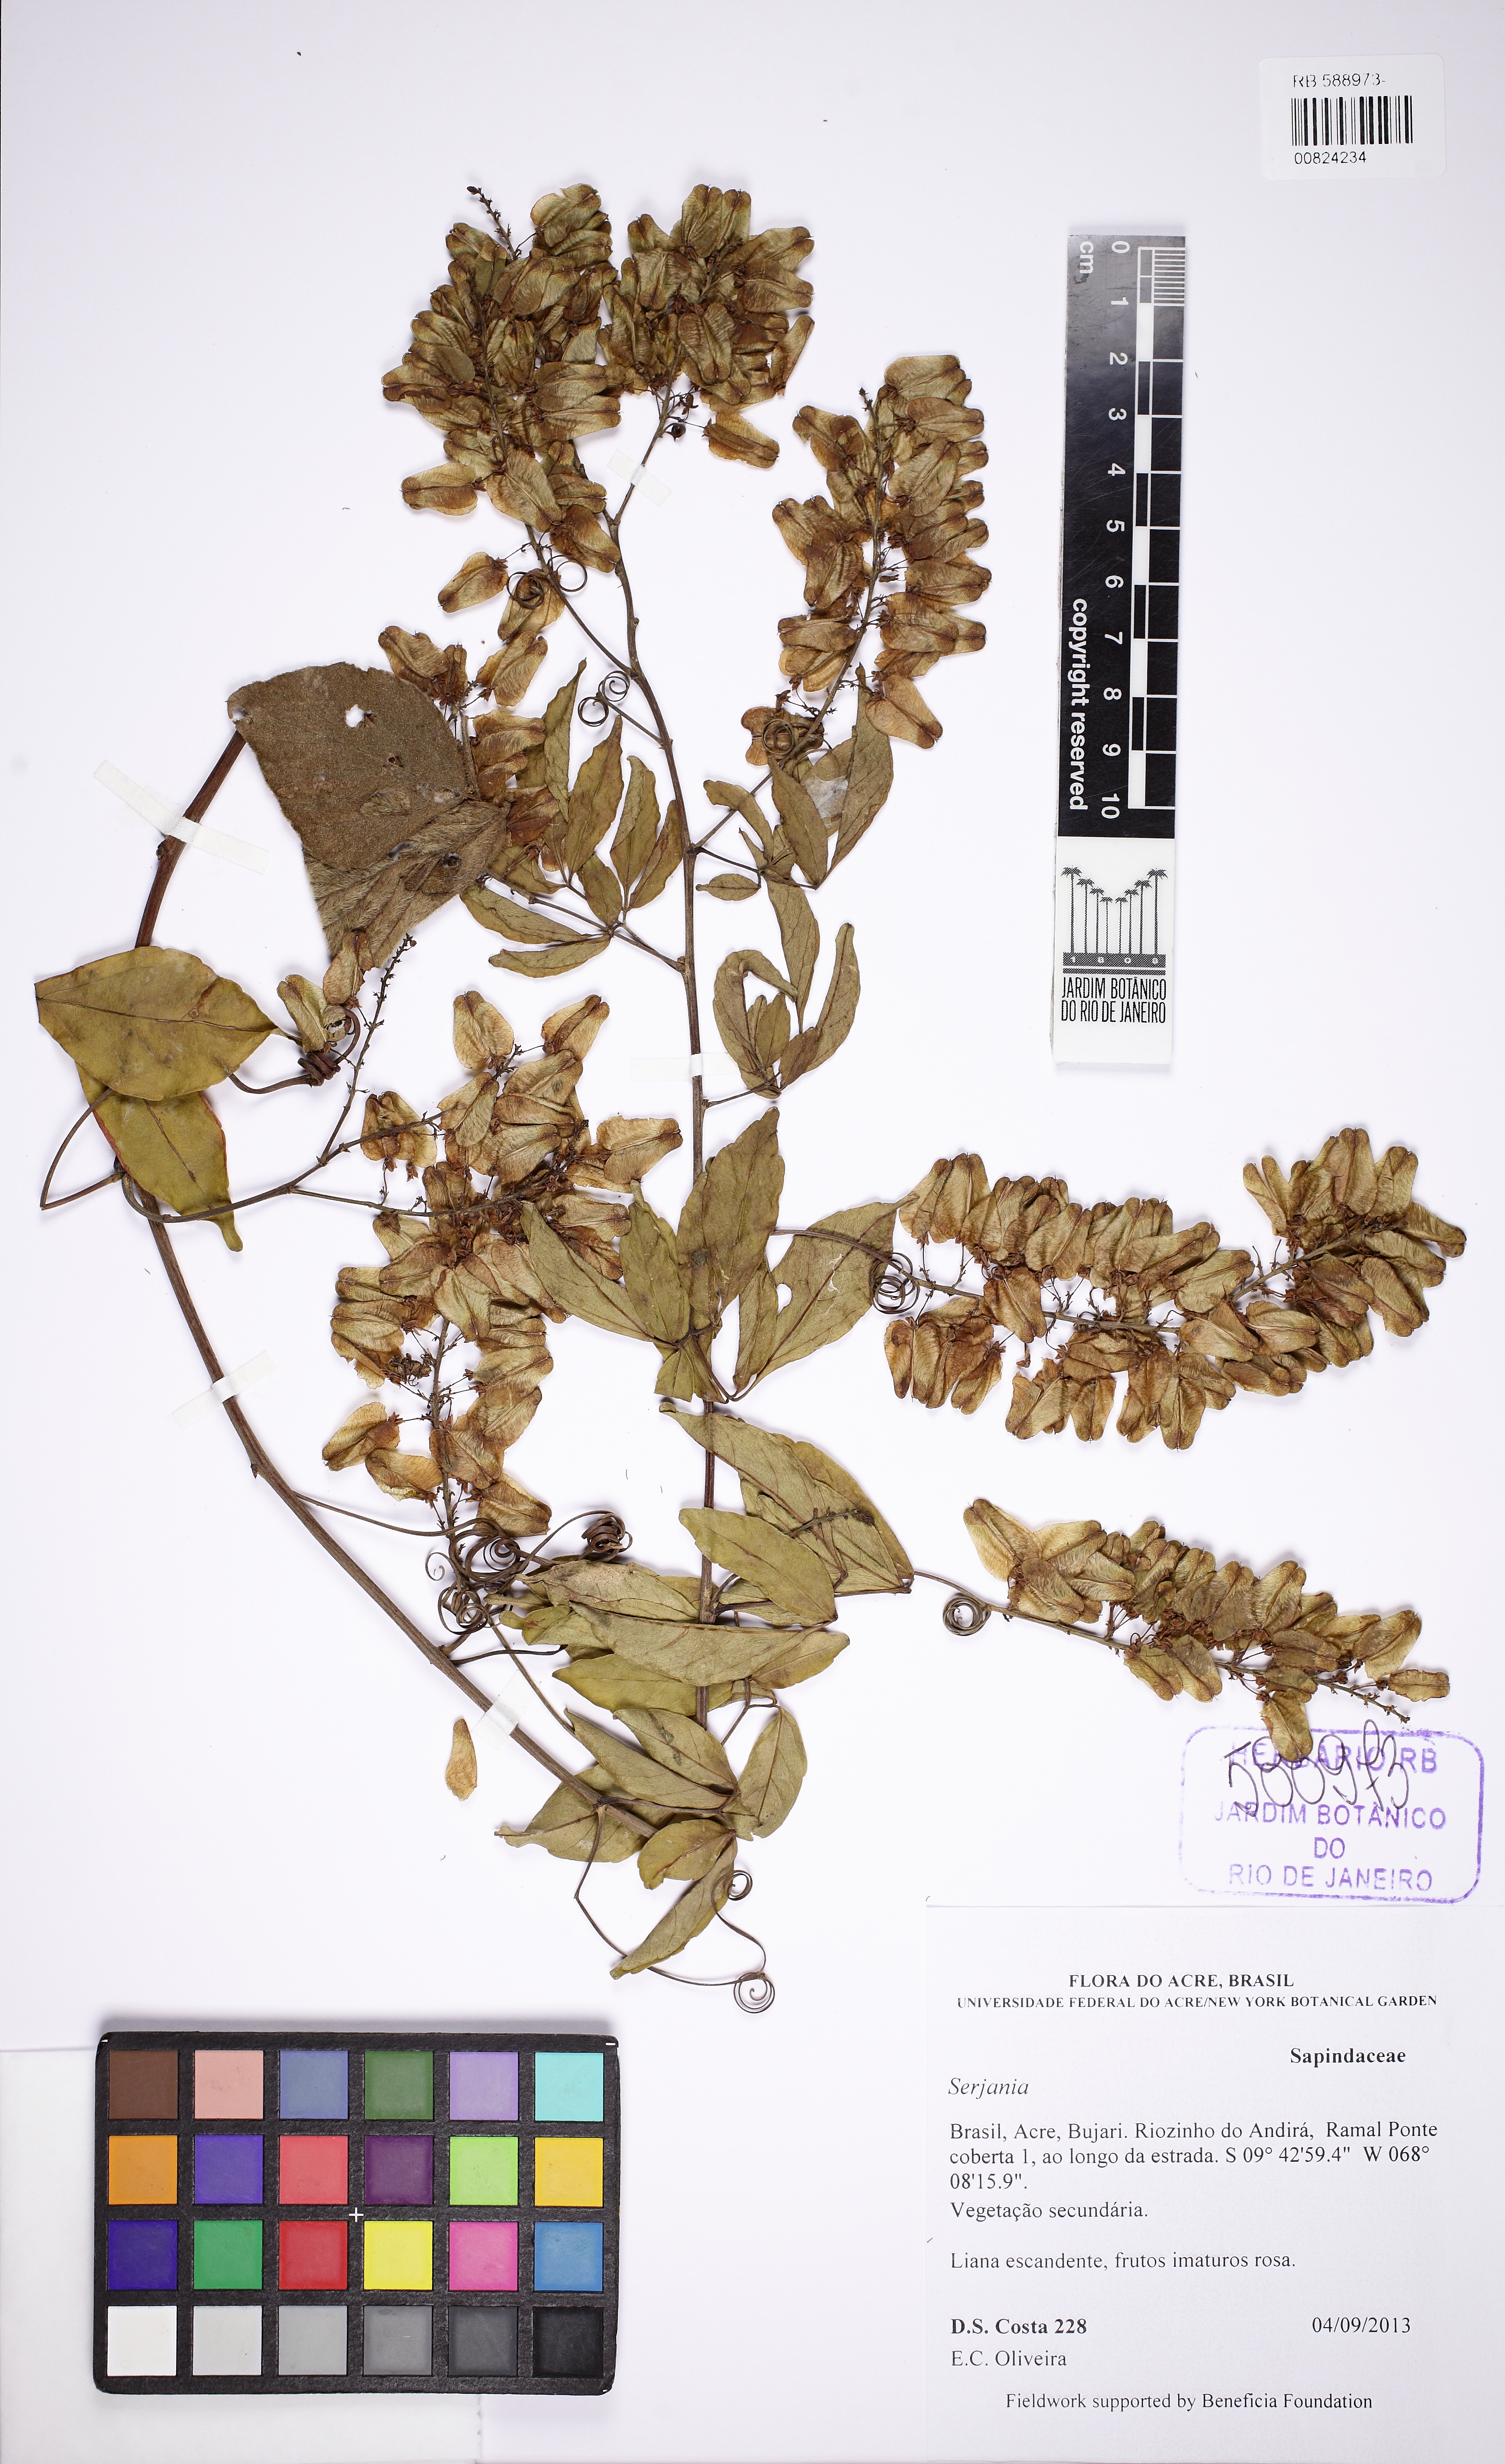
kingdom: Plantae
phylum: Tracheophyta
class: Magnoliopsida
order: Sapindales
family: Sapindaceae
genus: Serjania
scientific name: Serjania
